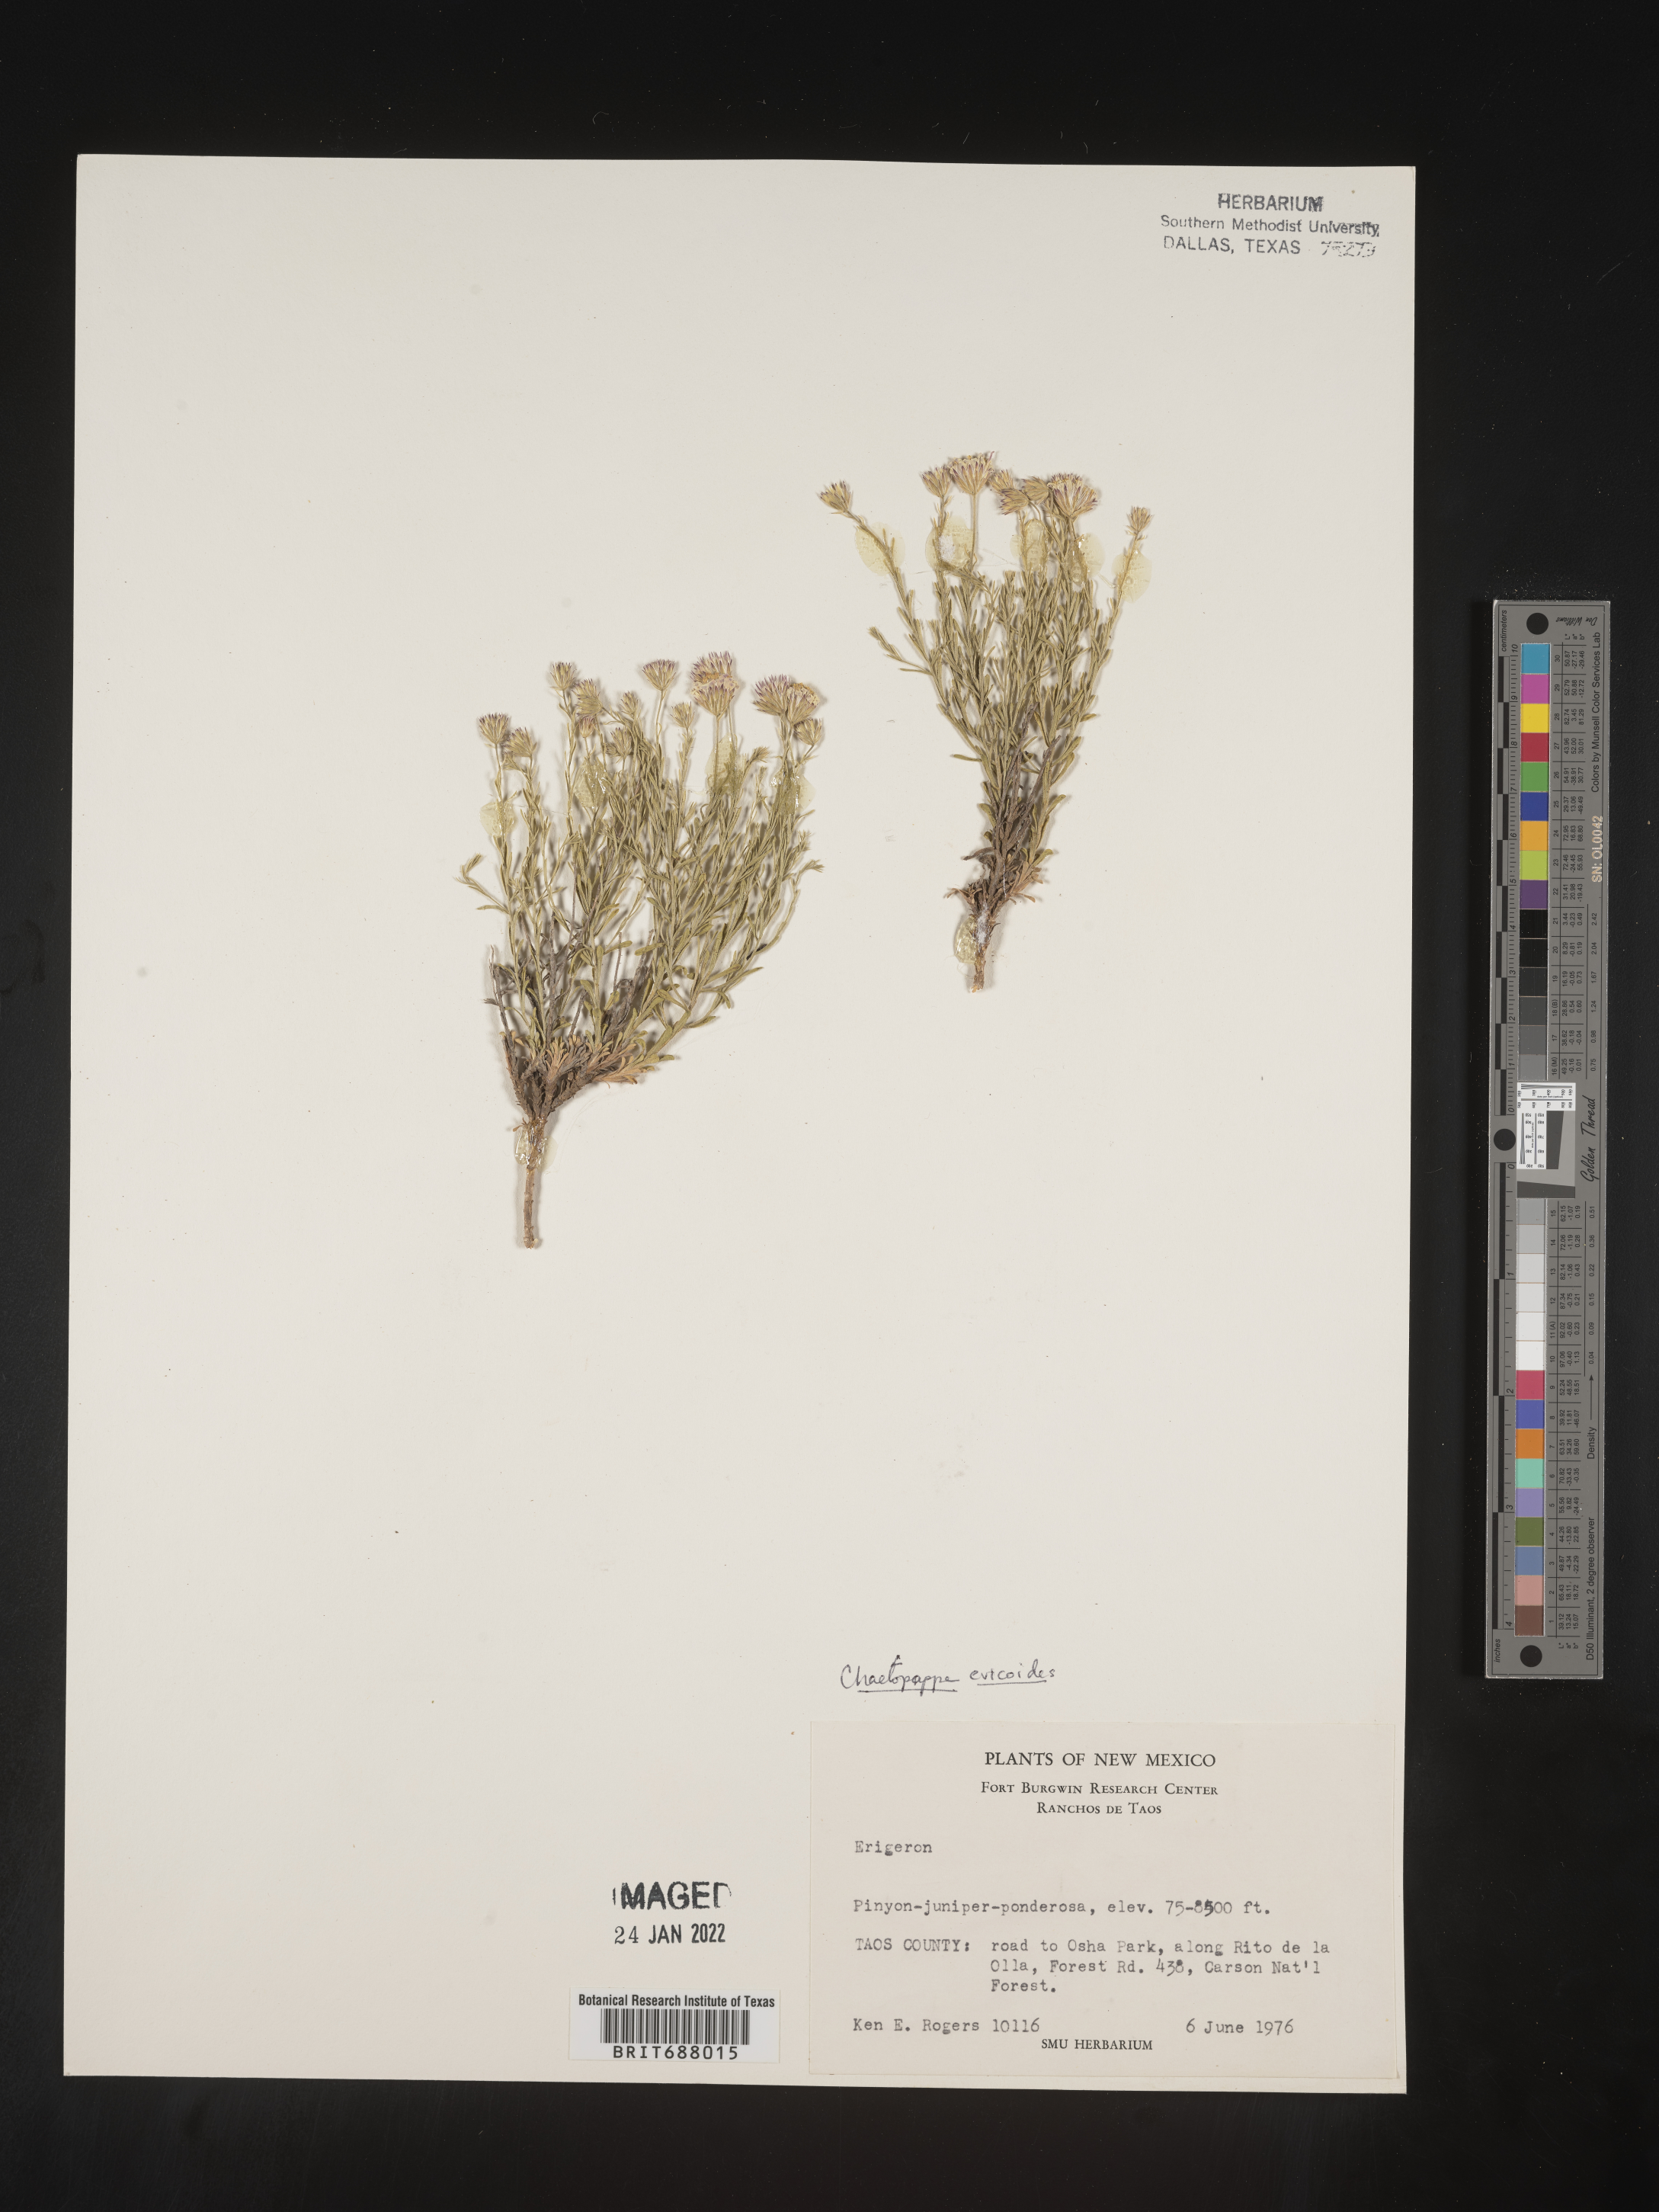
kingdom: Plantae
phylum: Tracheophyta
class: Magnoliopsida
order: Asterales
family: Asteraceae
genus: Chaetopappa
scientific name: Chaetopappa ericoides
